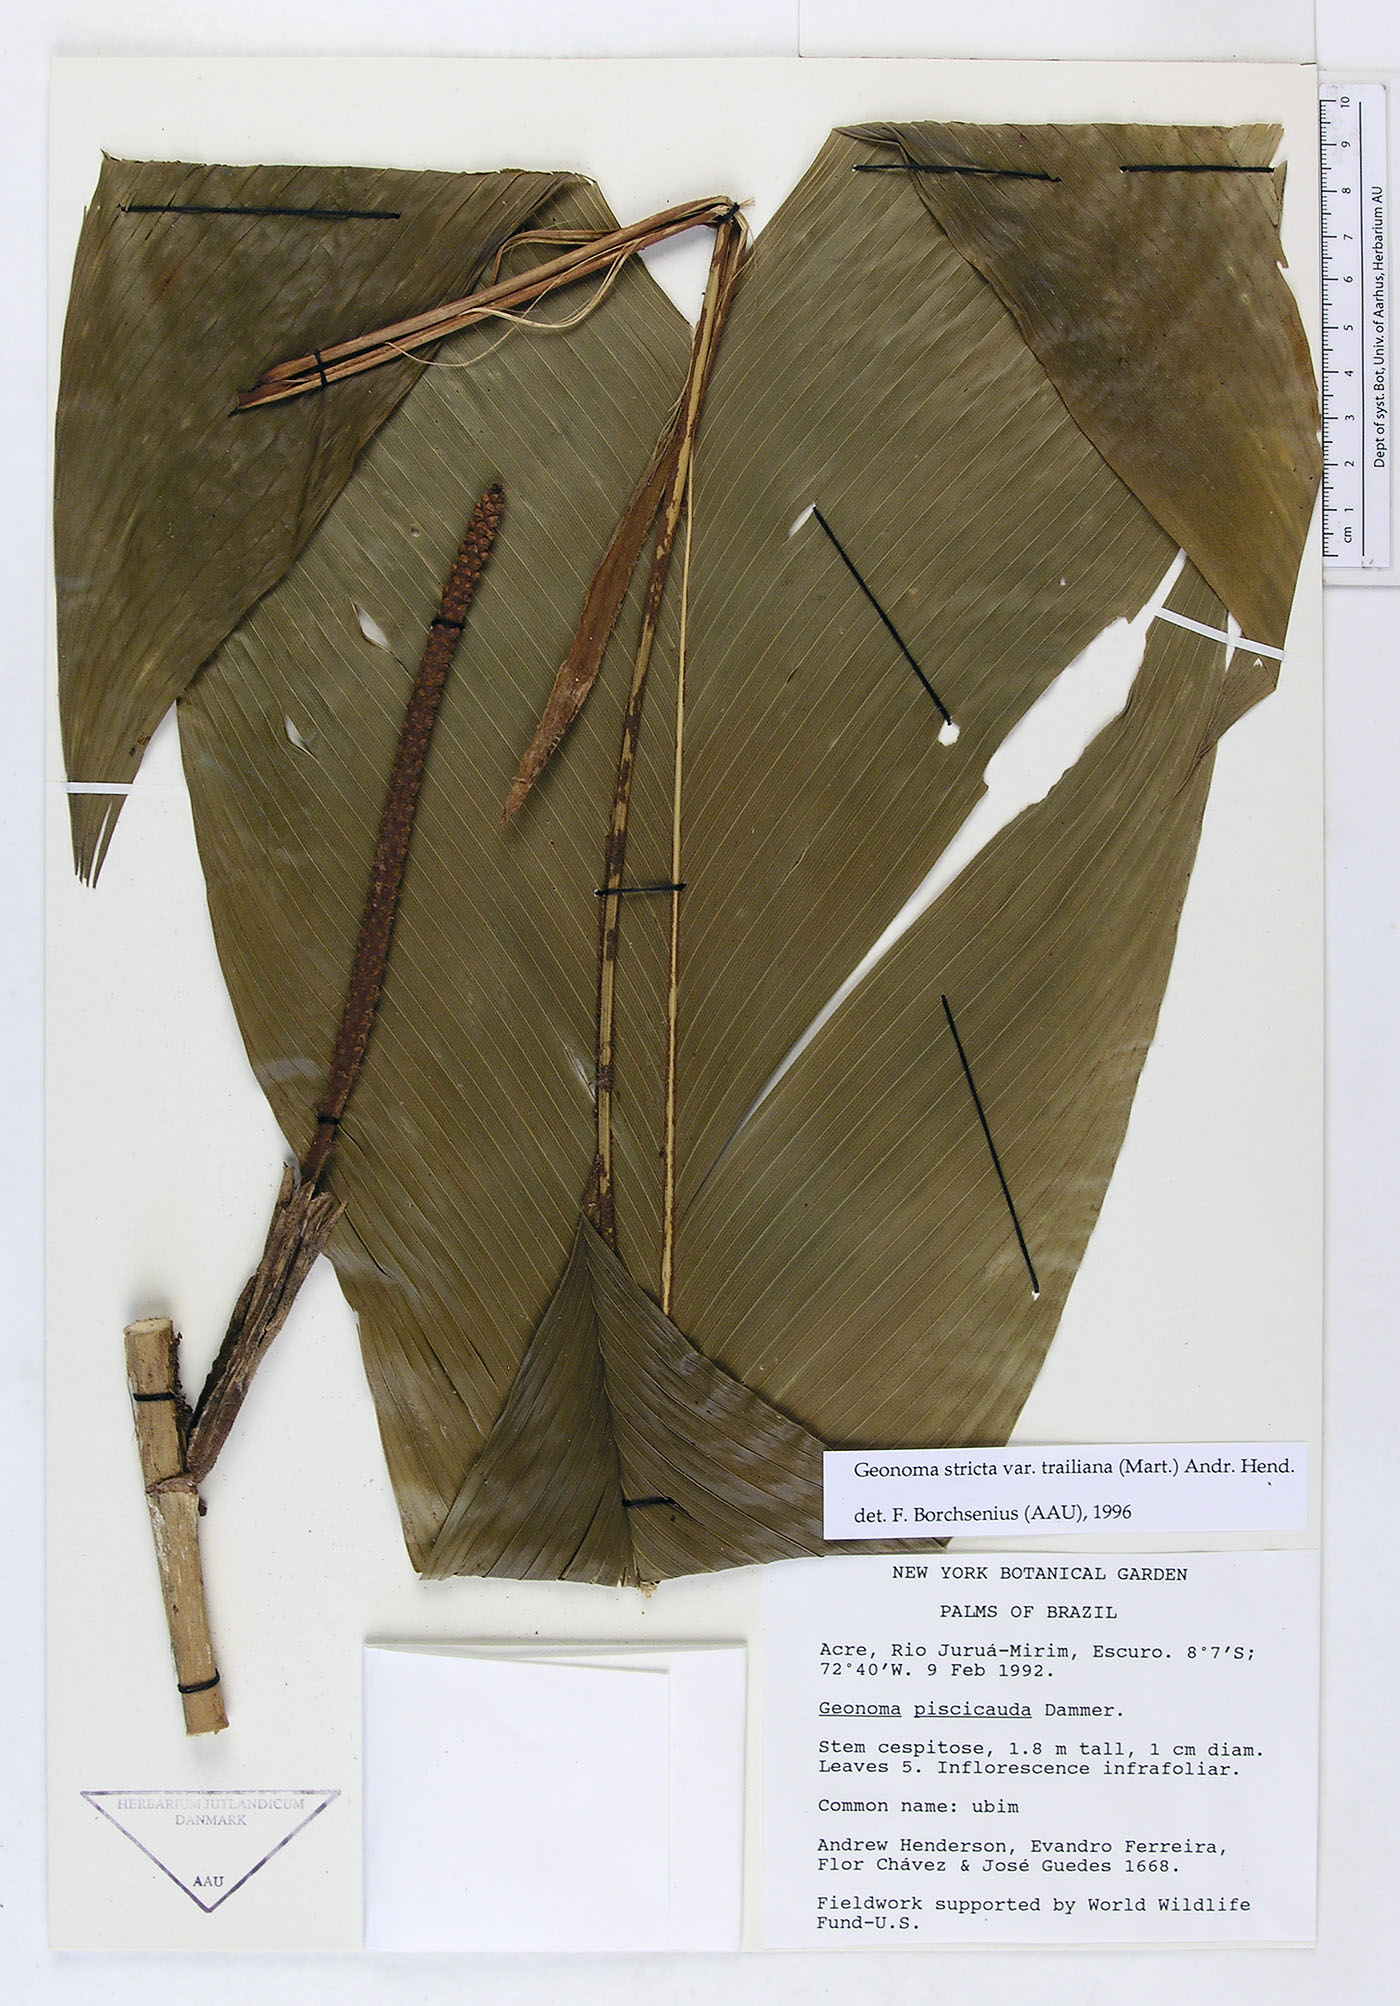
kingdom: Plantae
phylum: Tracheophyta
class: Liliopsida
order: Arecales
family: Arecaceae
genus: Geonoma
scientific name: Geonoma stricta
